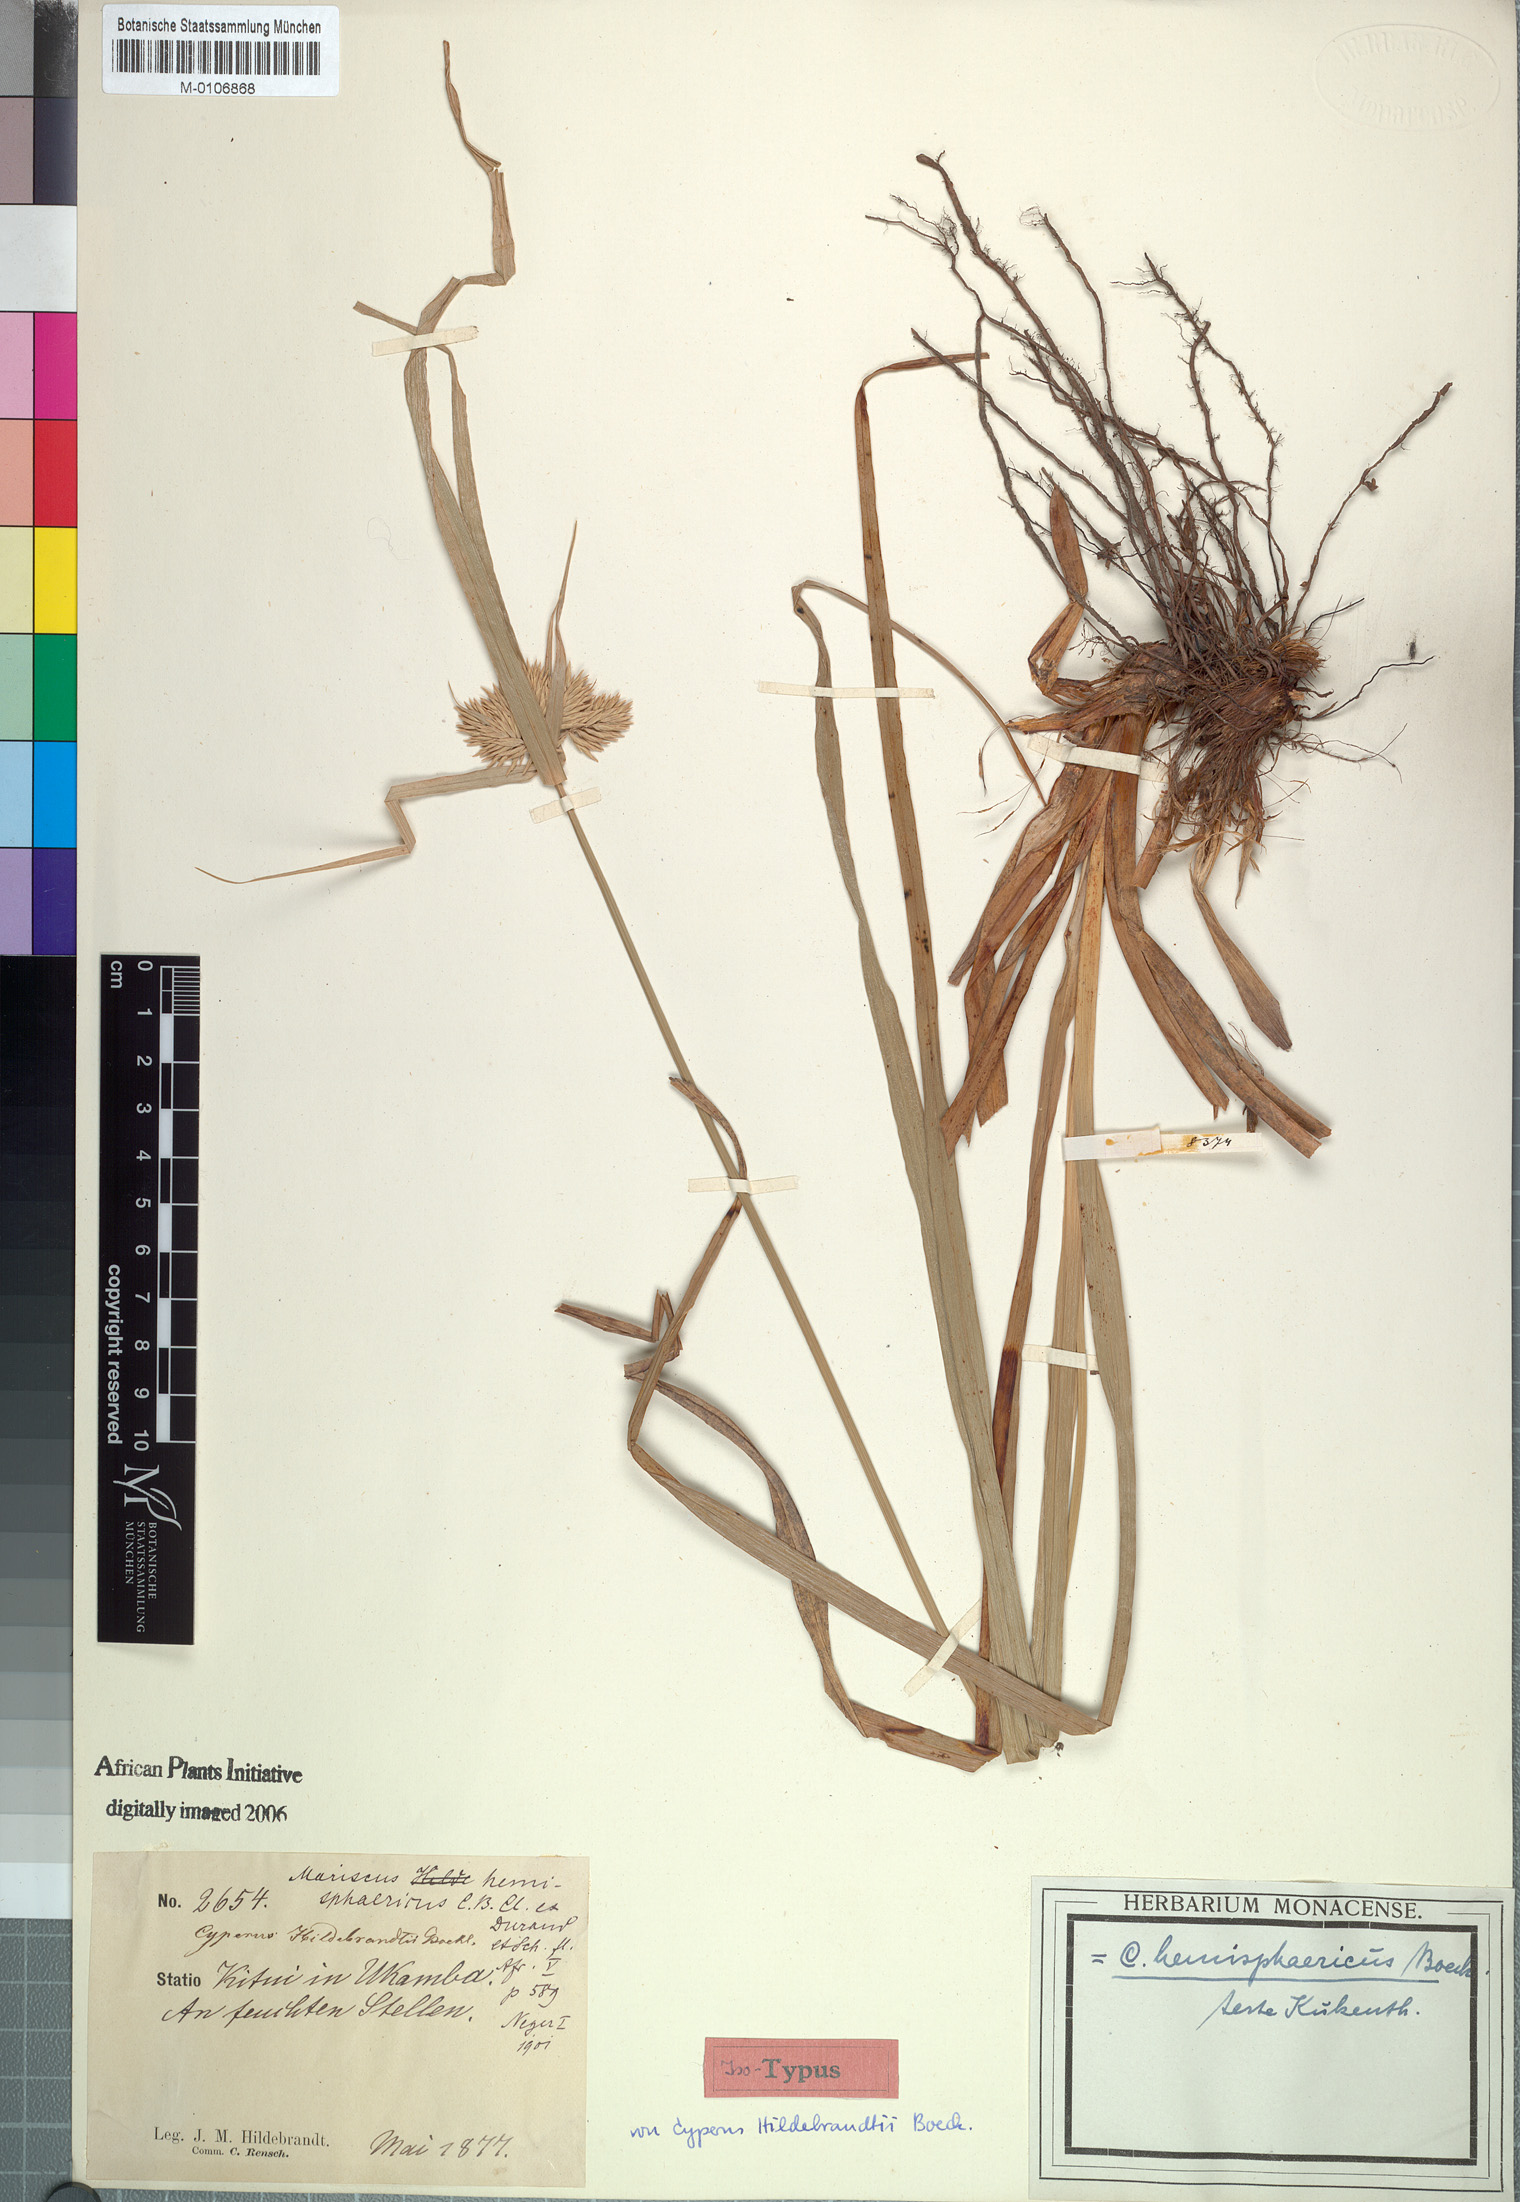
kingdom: Plantae
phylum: Tracheophyta
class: Liliopsida
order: Poales
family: Cyperaceae
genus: Cyperus
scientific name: Cyperus hemisphaericus
